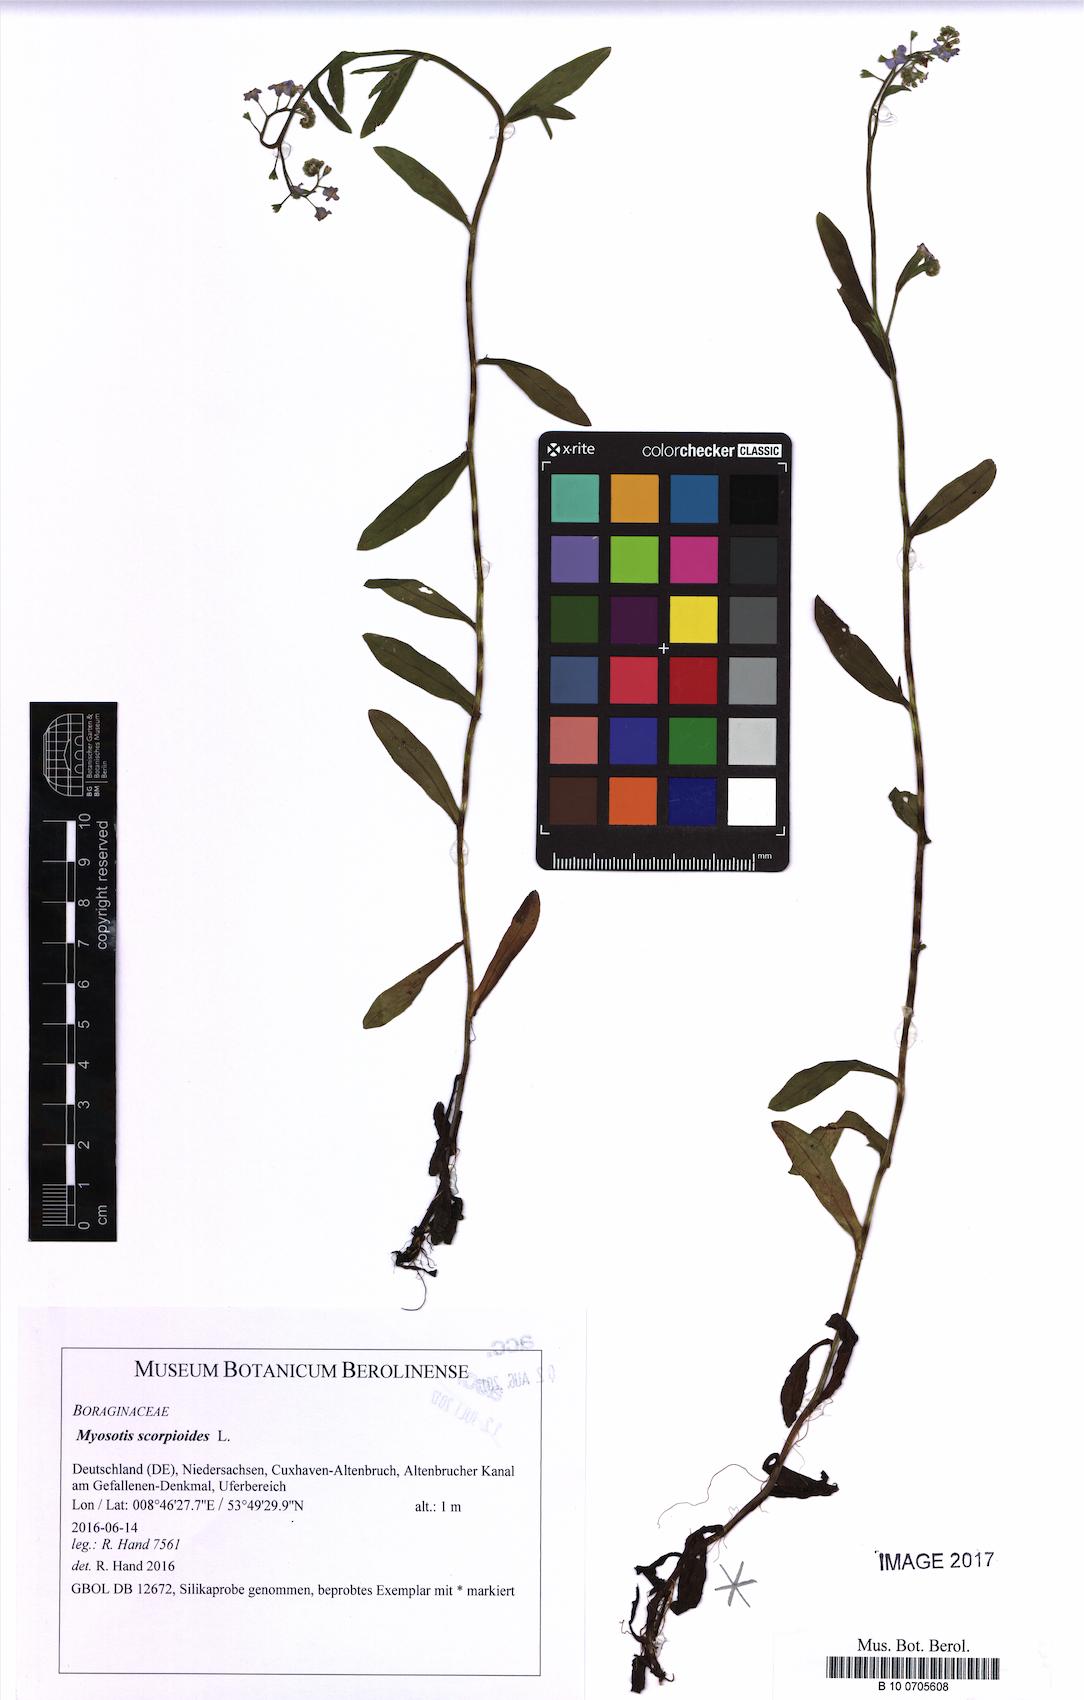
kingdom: Plantae
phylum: Tracheophyta
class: Magnoliopsida
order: Boraginales
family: Boraginaceae
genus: Myosotis
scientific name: Myosotis scorpioides
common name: Water forget-me-not
